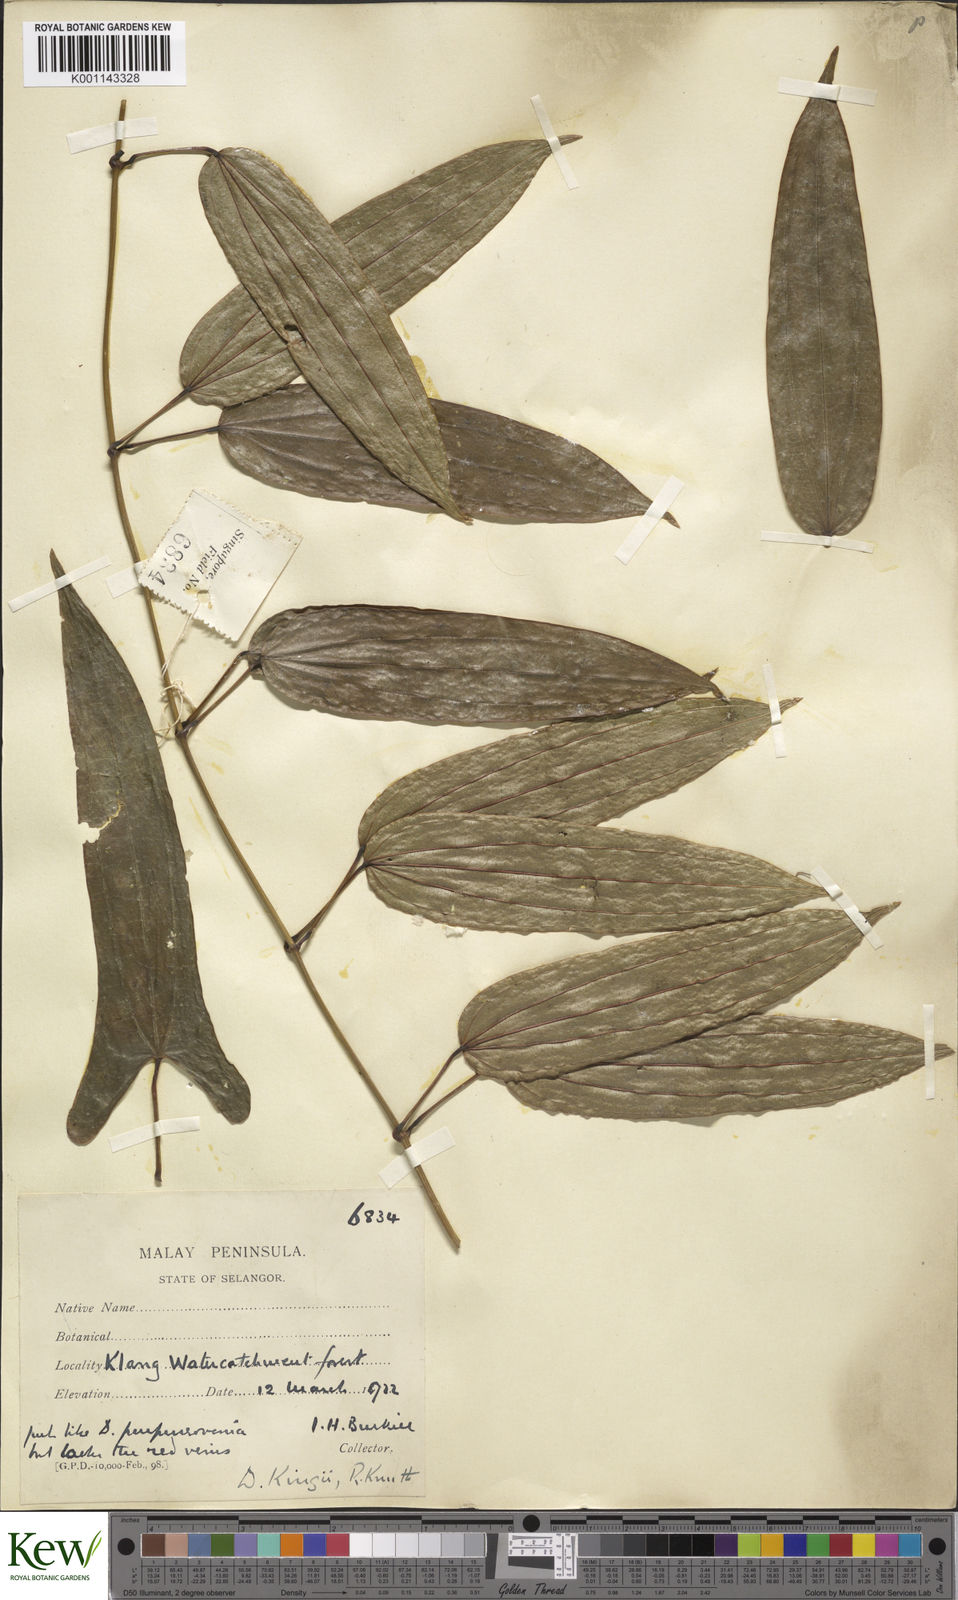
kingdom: Plantae
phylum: Tracheophyta
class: Liliopsida
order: Dioscoreales
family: Dioscoreaceae
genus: Dioscorea
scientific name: Dioscorea kingii
